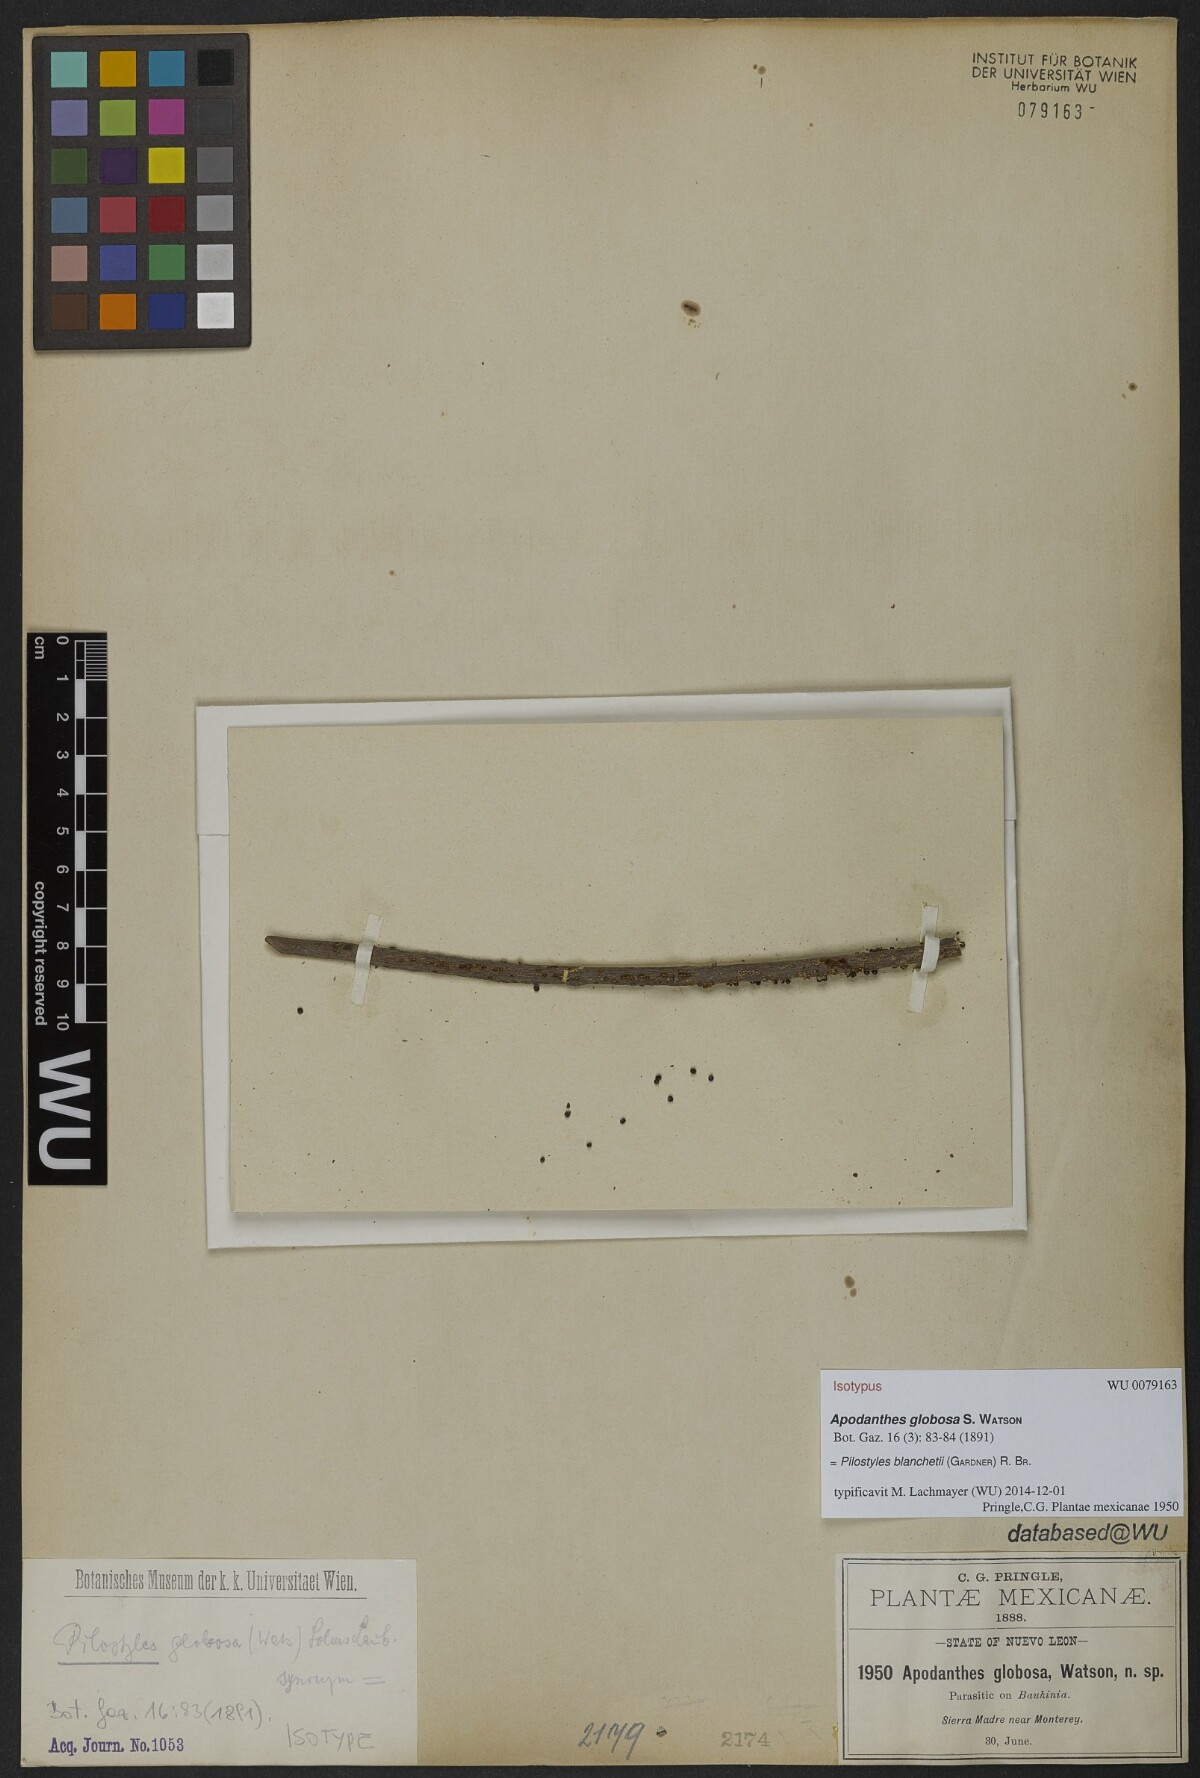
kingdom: Plantae
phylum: Tracheophyta
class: Magnoliopsida
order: Cucurbitales
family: Apodanthaceae
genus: Pilostyles
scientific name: Pilostyles blanchetii
